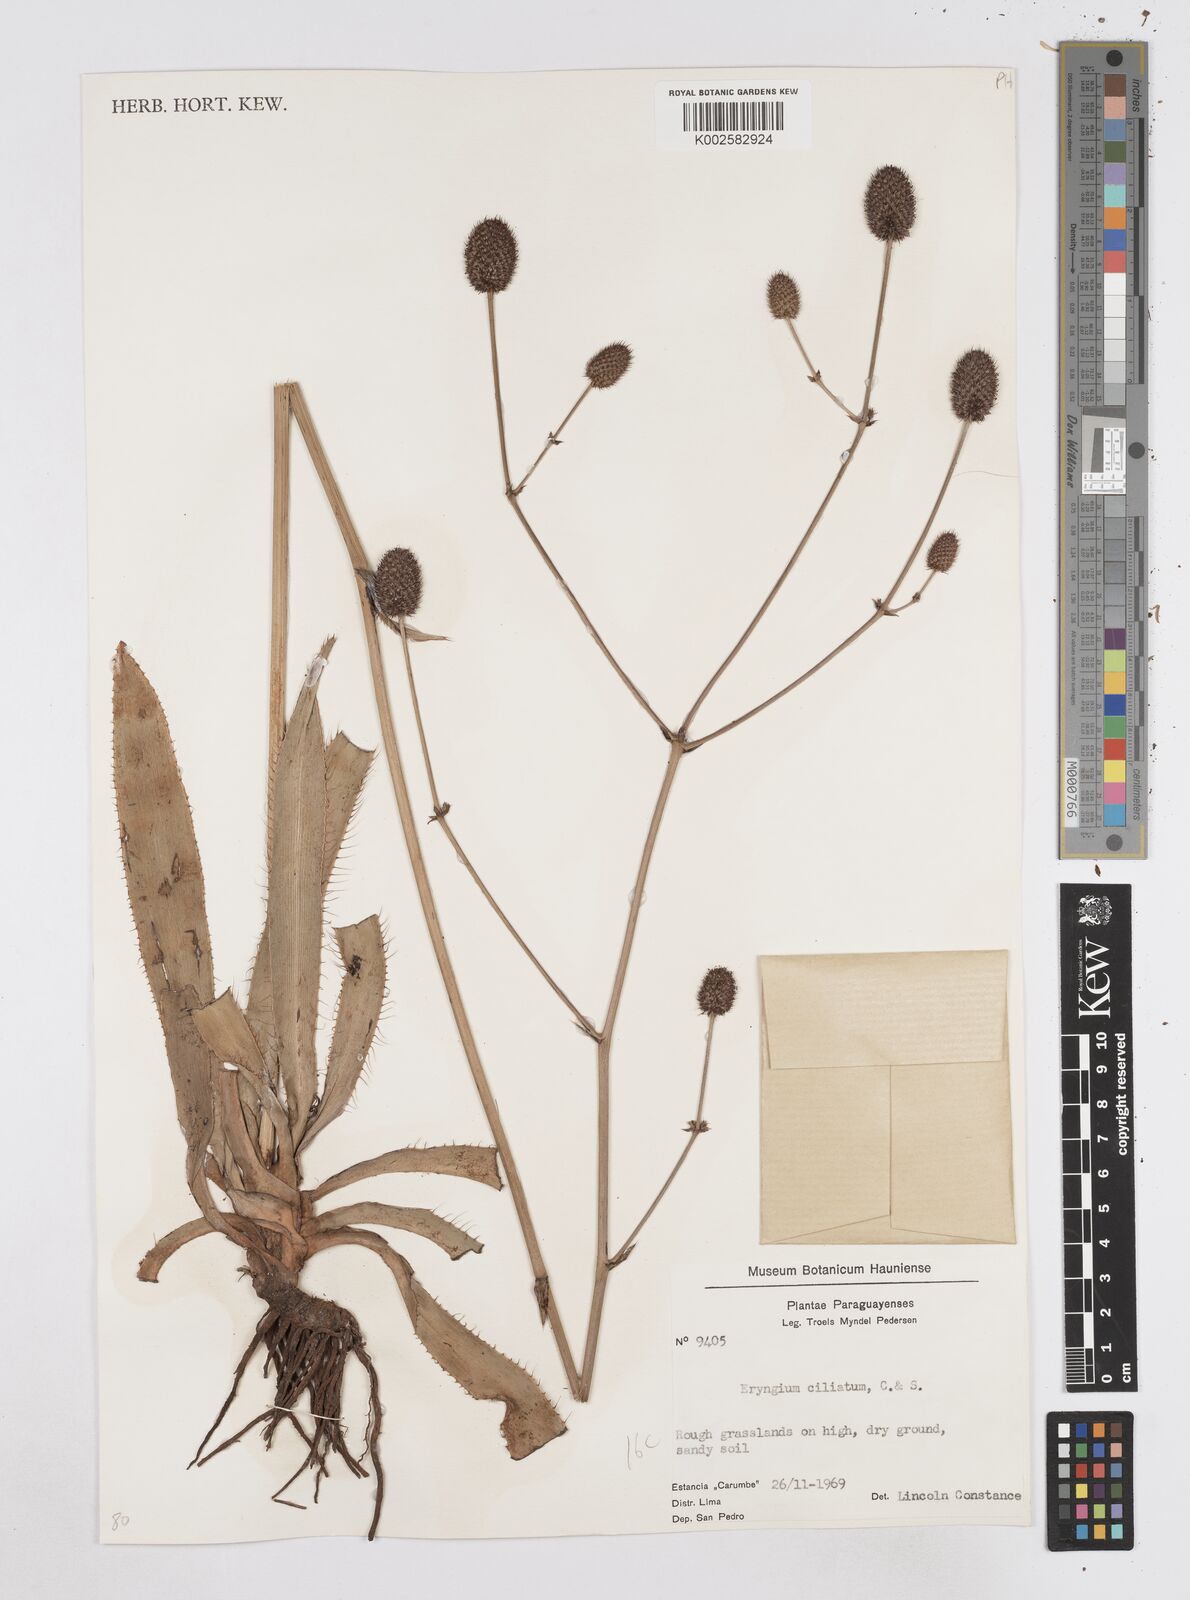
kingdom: Plantae
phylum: Tracheophyta
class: Magnoliopsida
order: Apiales
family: Apiaceae
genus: Eryngium
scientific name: Eryngium ciliatum
